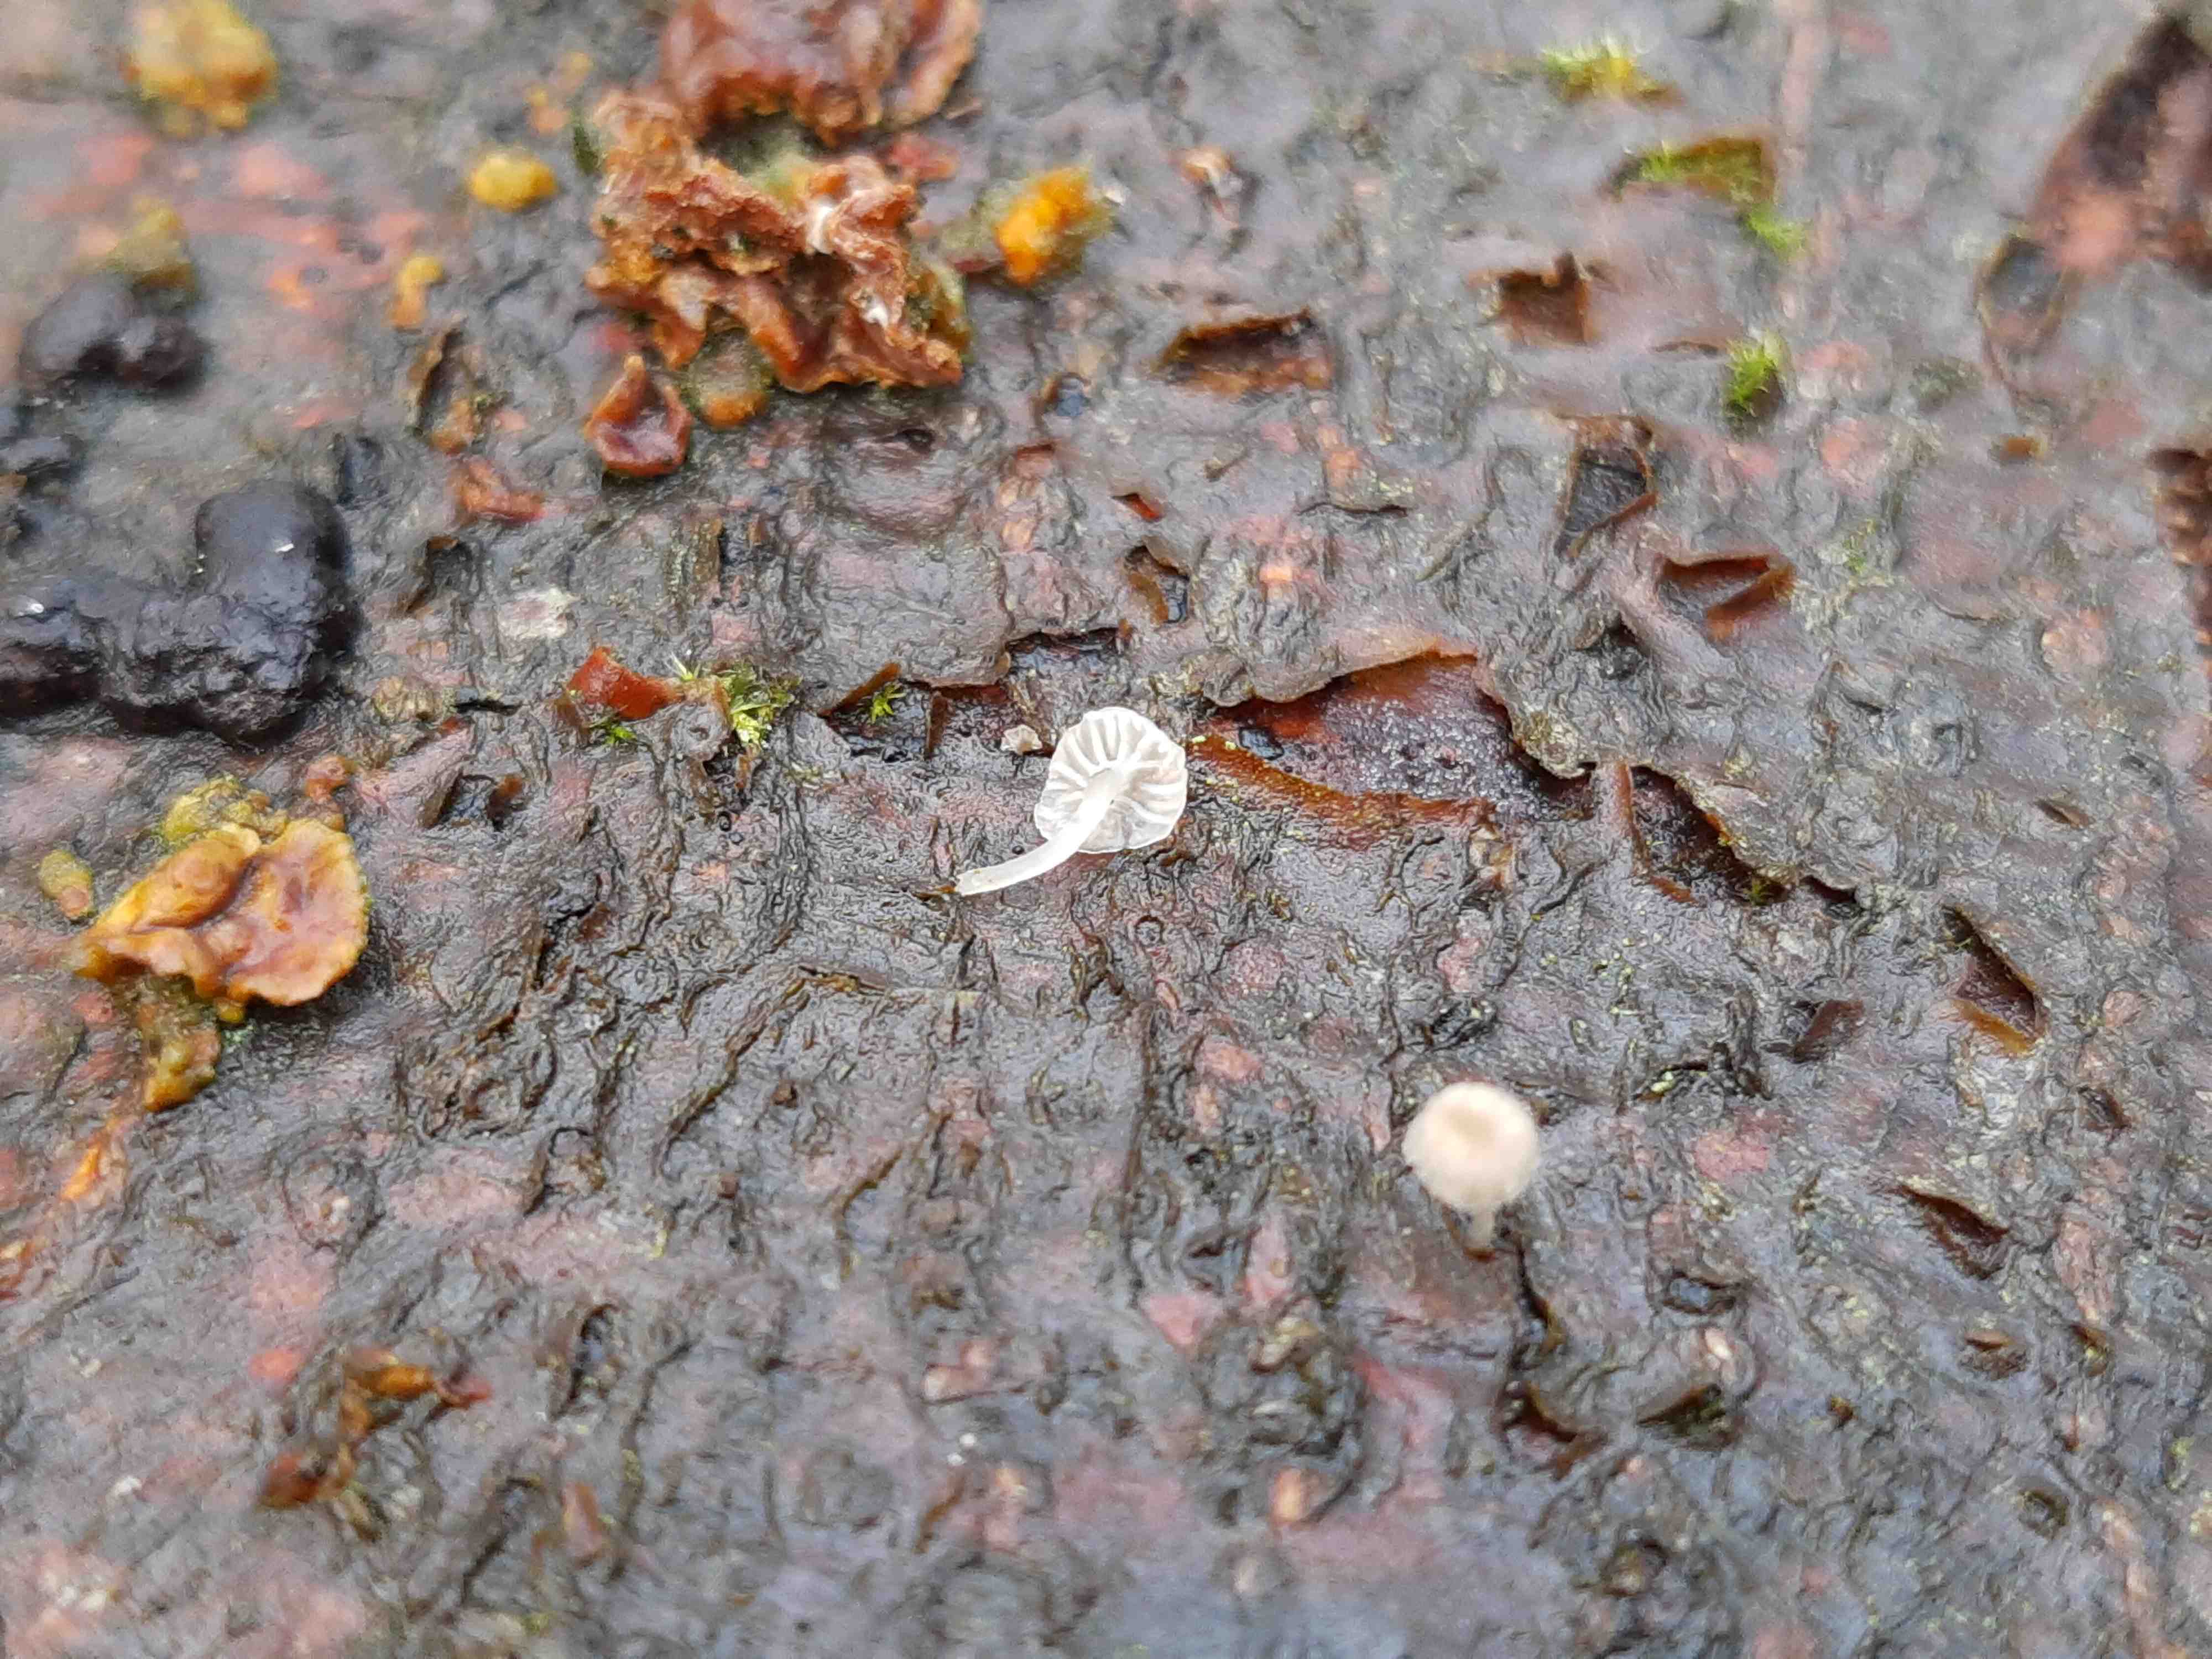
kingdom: Fungi
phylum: Basidiomycota
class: Agaricomycetes
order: Agaricales
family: Porotheleaceae
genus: Phloeomana
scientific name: Phloeomana speirea
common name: kvist-huesvamp
